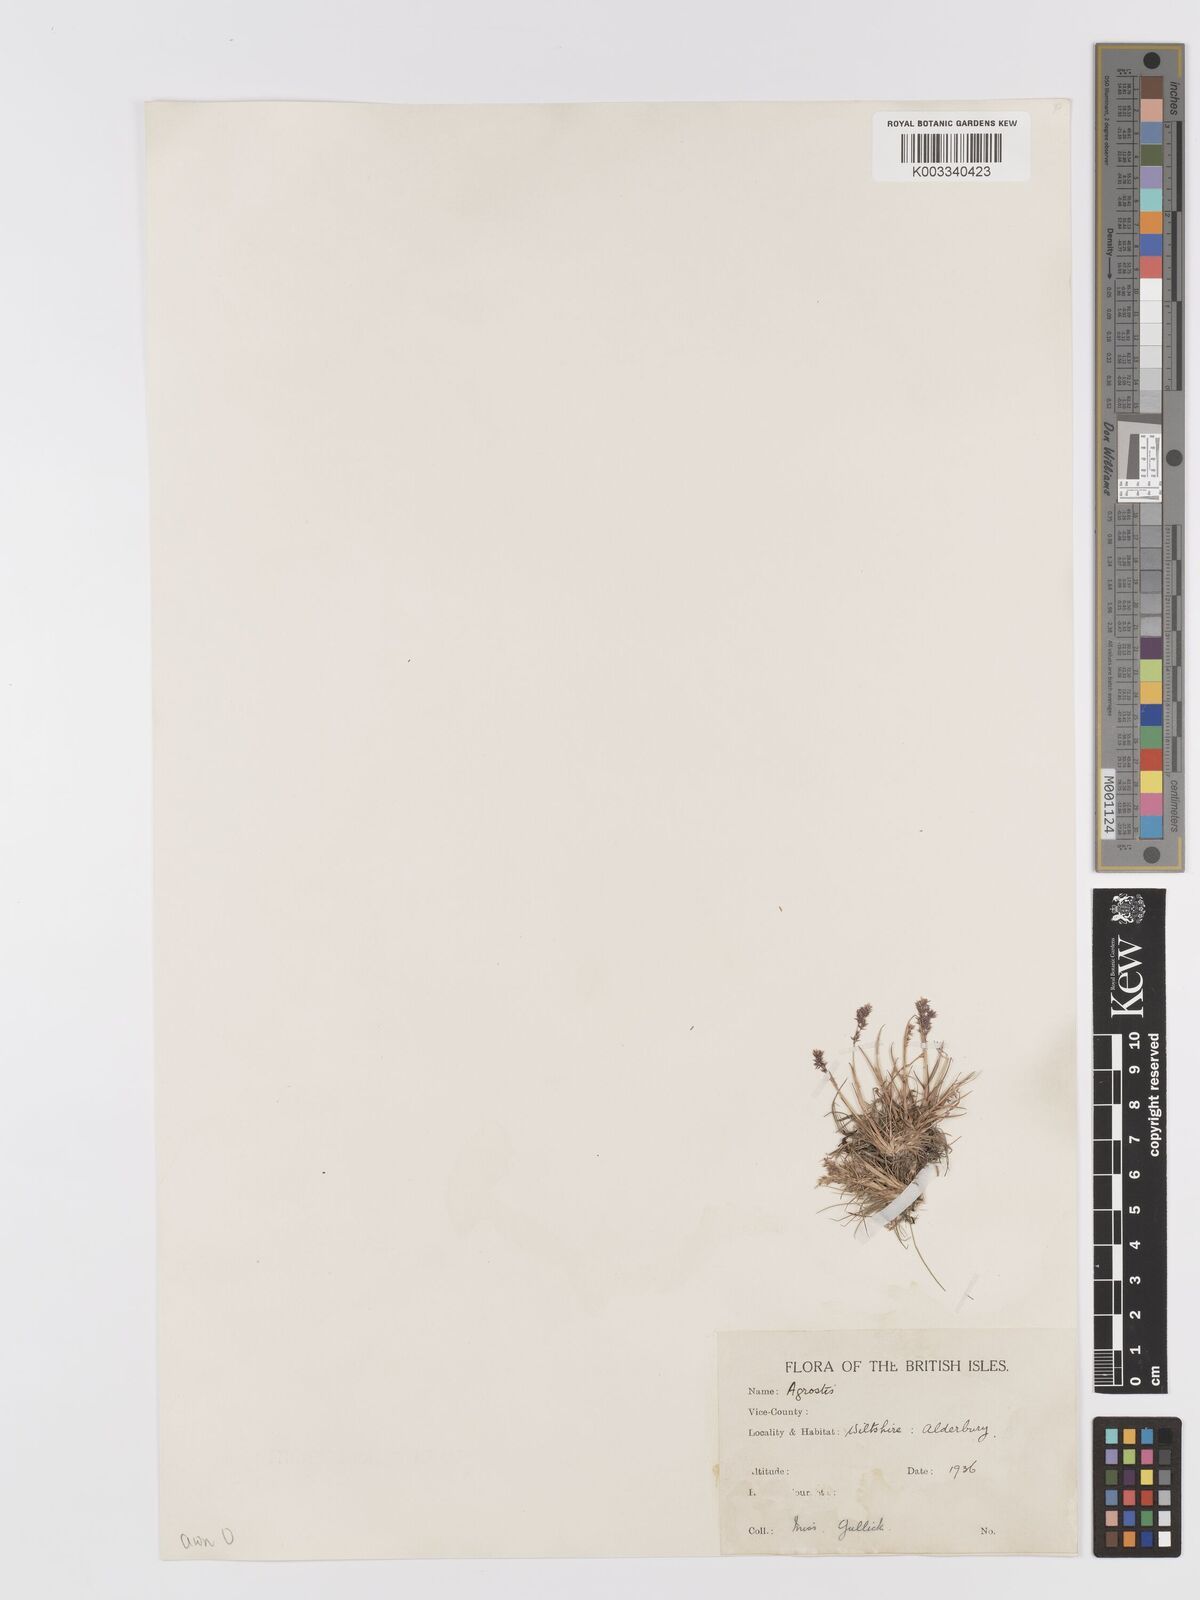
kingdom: Plantae
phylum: Tracheophyta
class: Liliopsida
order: Poales
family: Poaceae
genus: Agrostis
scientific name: Agrostis capillaris
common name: Colonial bentgrass
